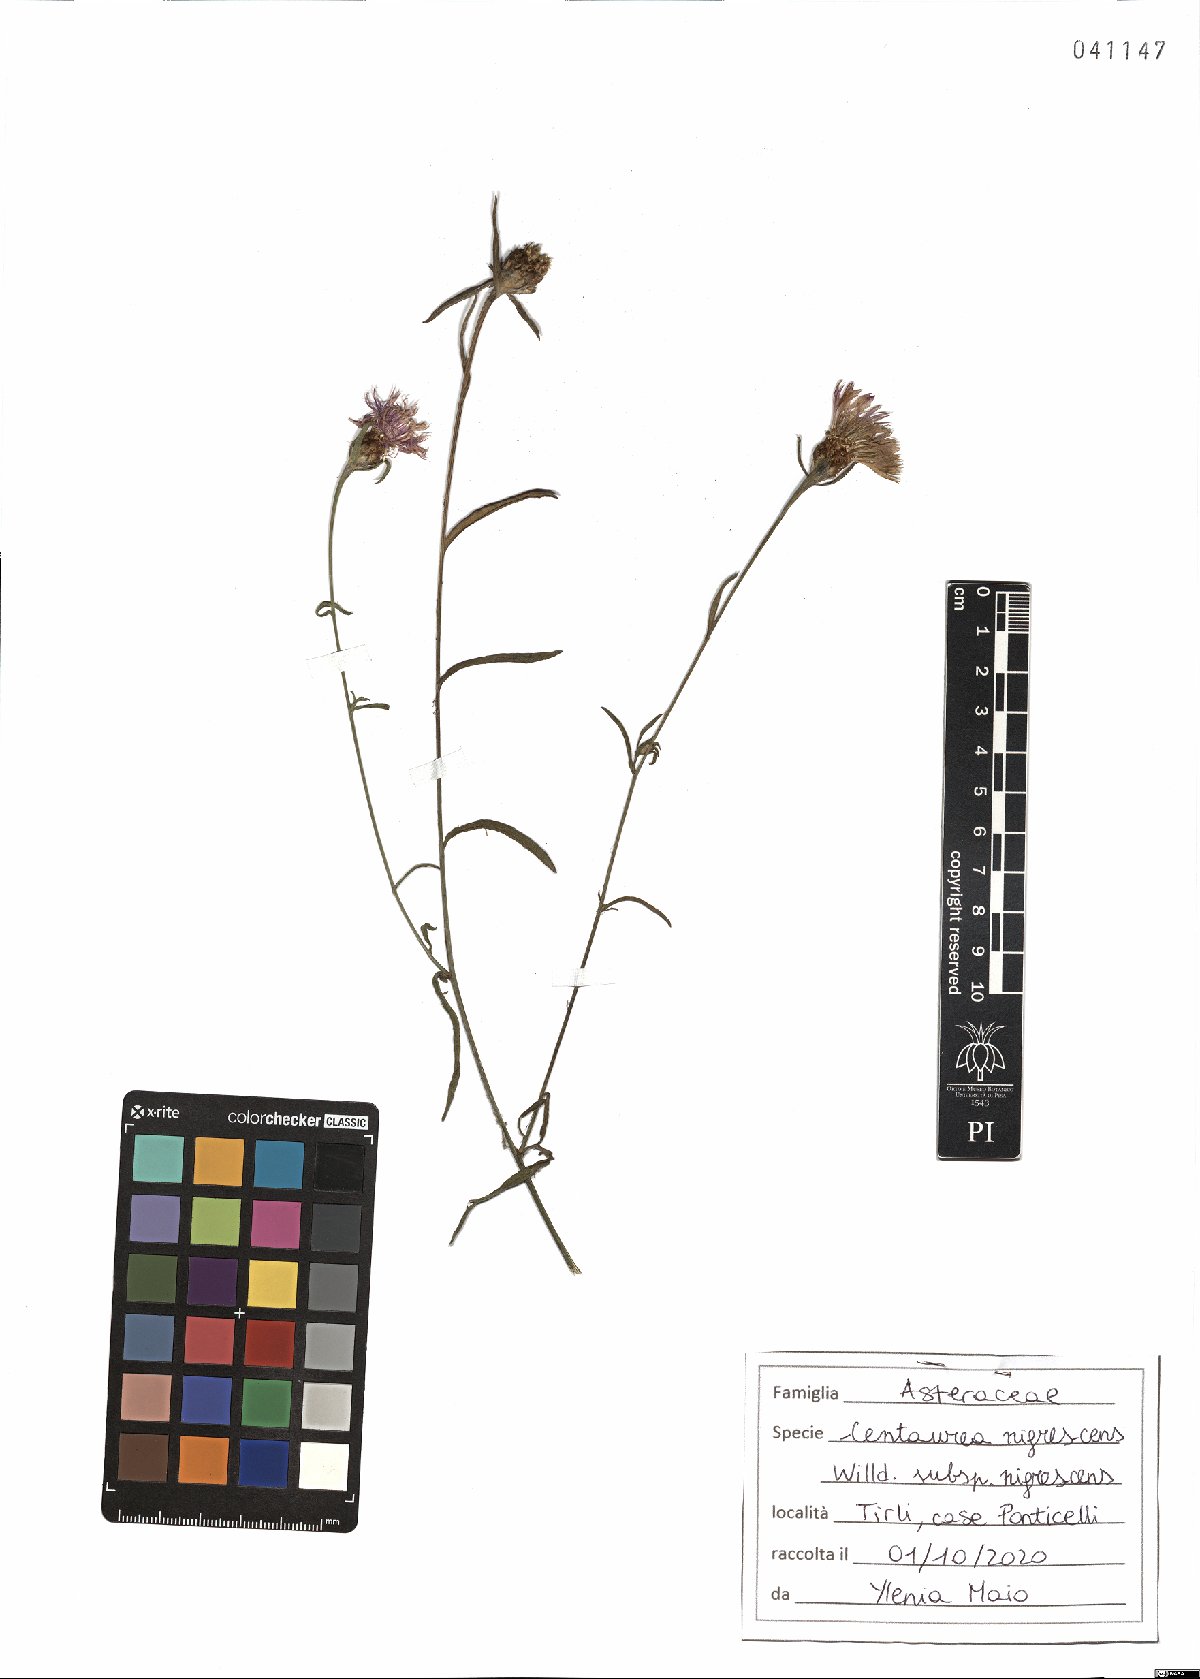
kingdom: Plantae
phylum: Tracheophyta
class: Magnoliopsida
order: Asterales
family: Asteraceae
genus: Centaurea
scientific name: Centaurea nigrescens
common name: Tyrol knapweed
